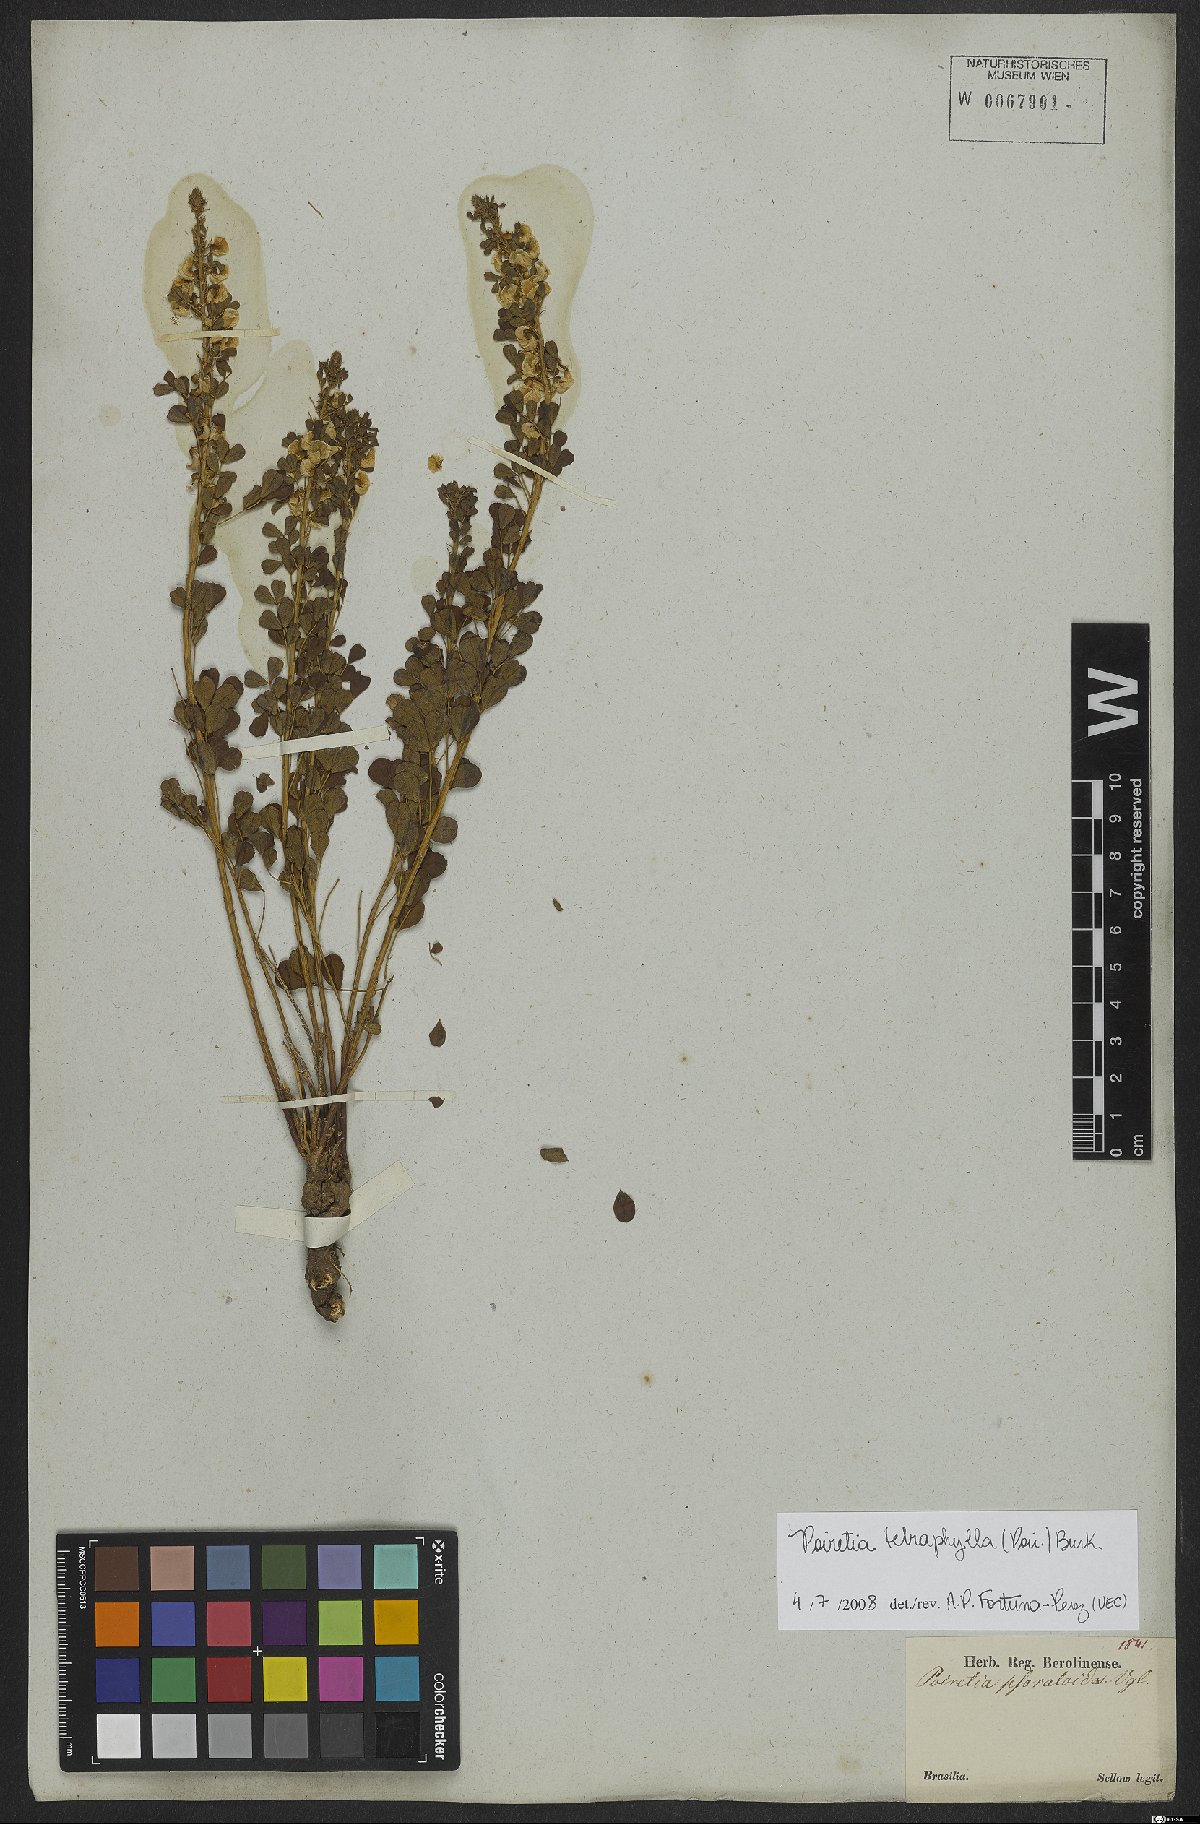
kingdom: Plantae
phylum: Tracheophyta
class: Magnoliopsida
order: Fabales
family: Fabaceae
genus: Poiretia
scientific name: Poiretia tetraphylla
